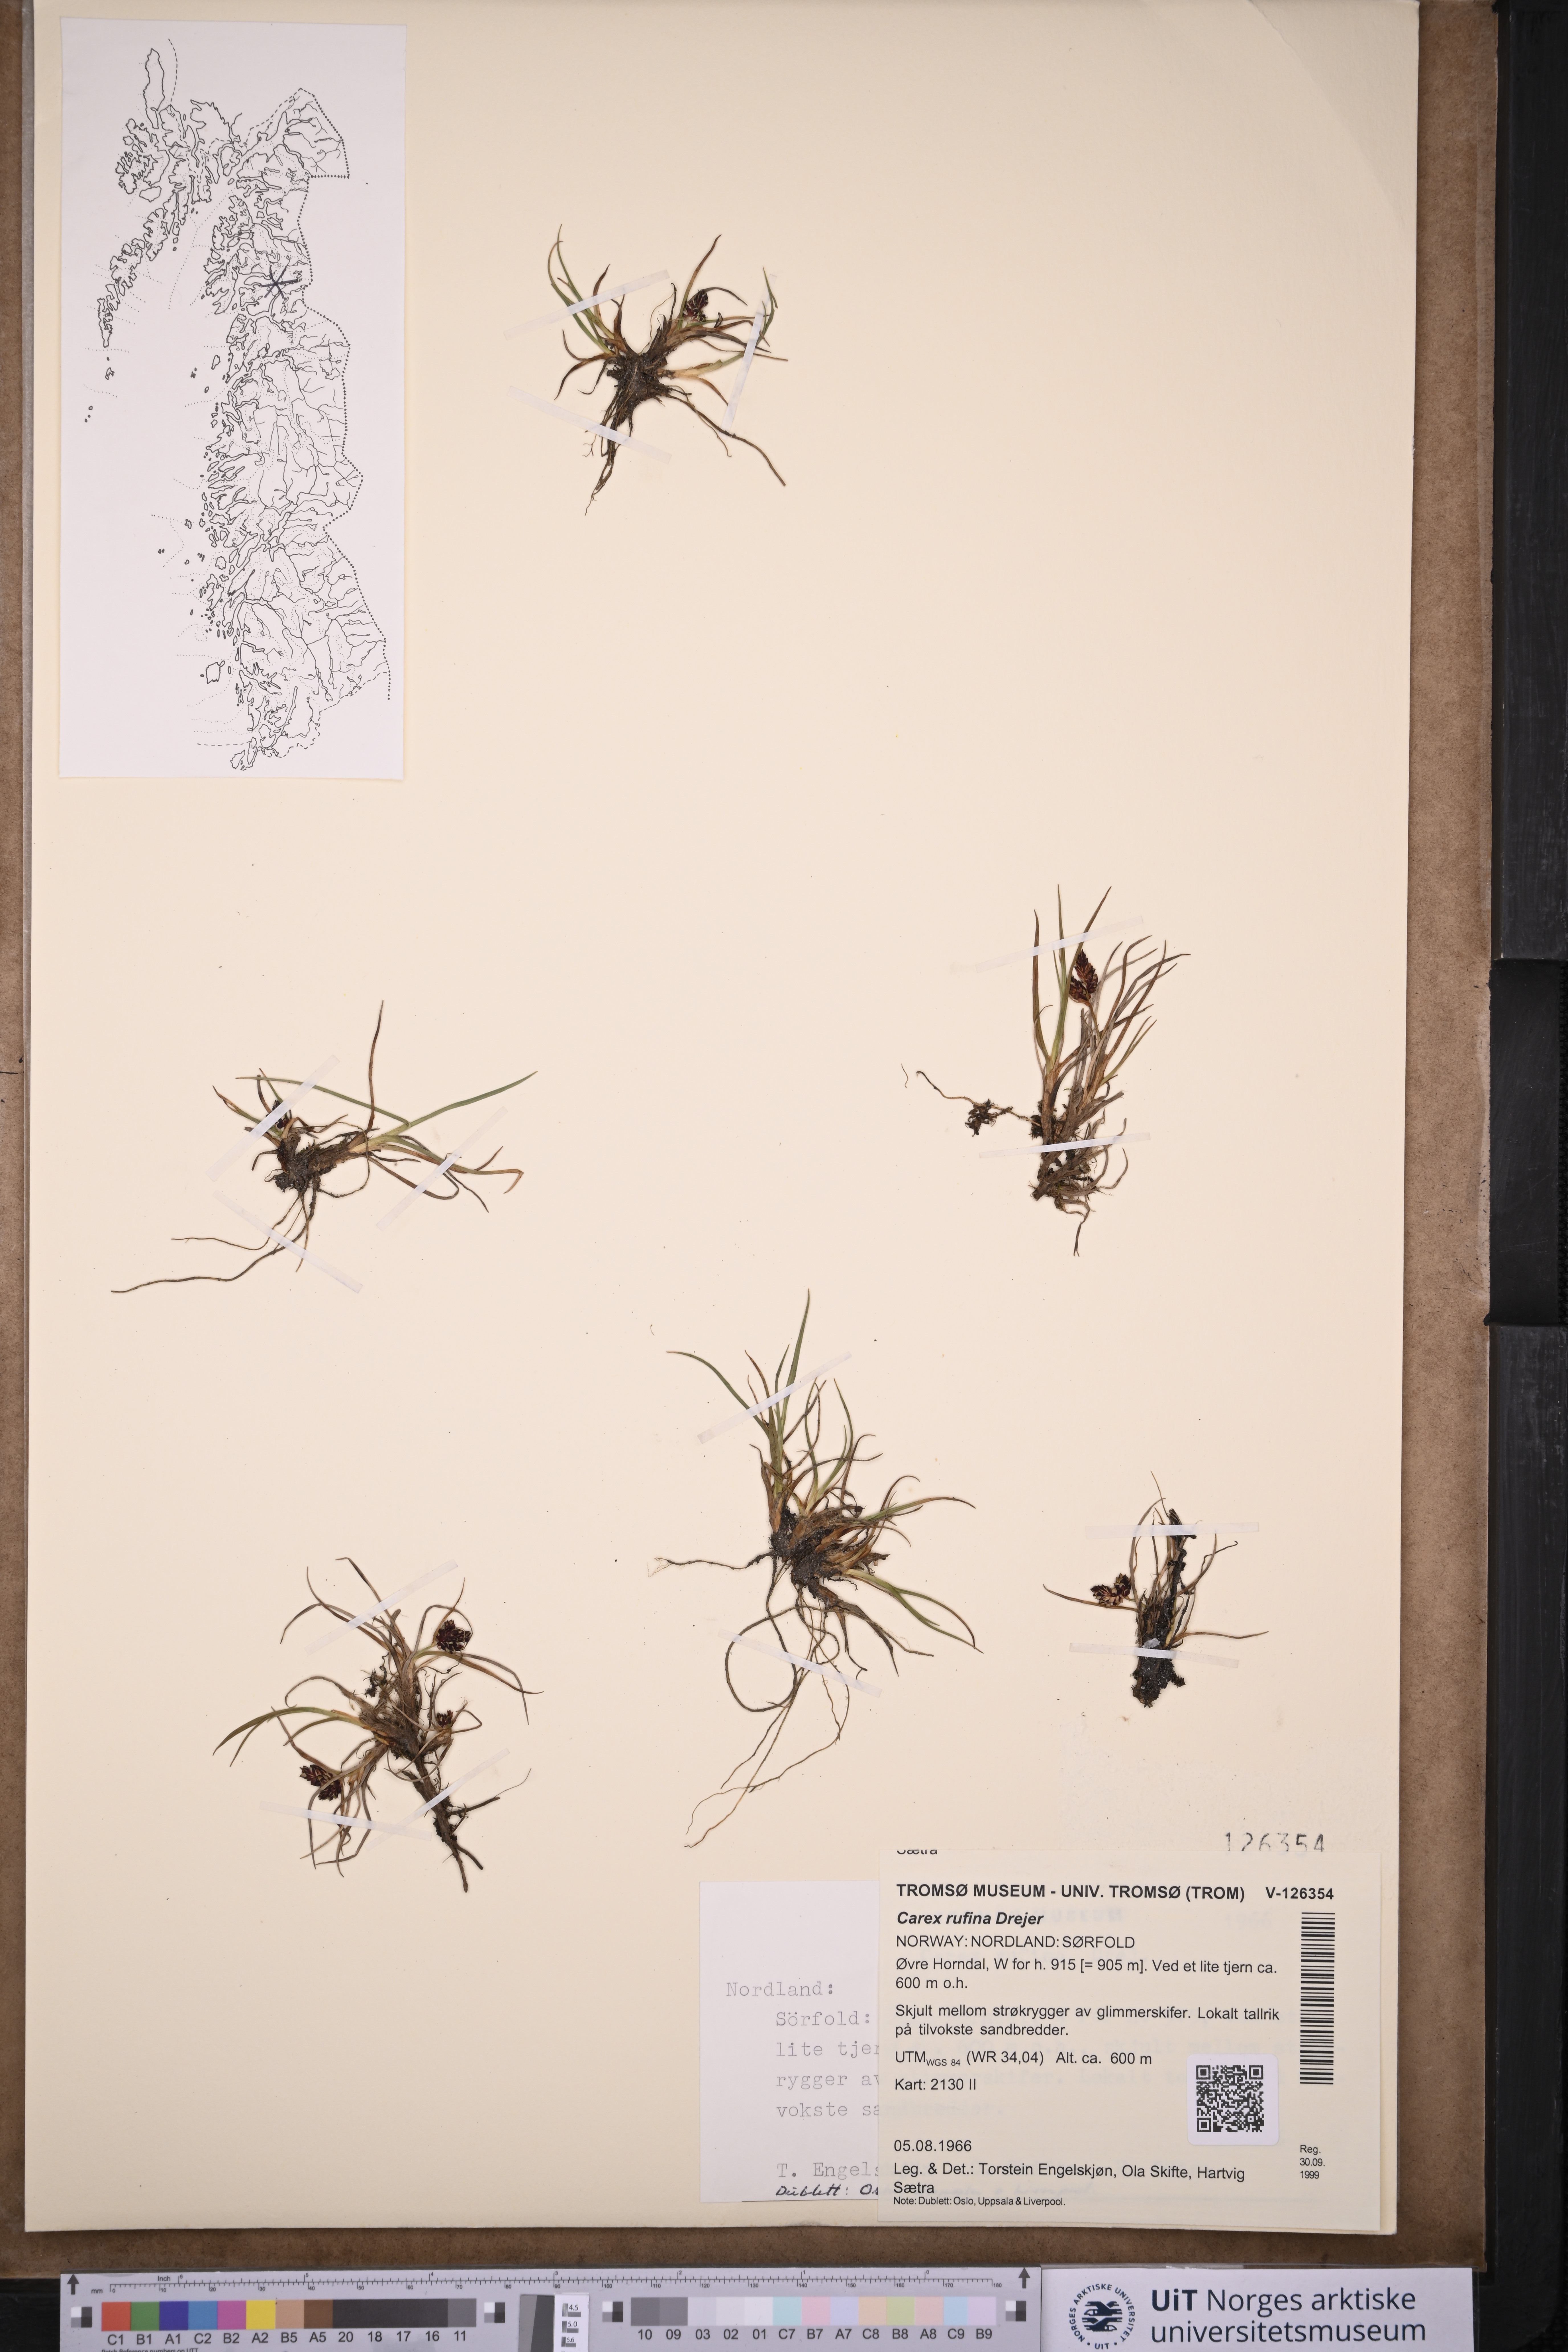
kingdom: Plantae
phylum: Tracheophyta
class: Liliopsida
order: Poales
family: Cyperaceae
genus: Carex
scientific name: Carex rufina
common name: Reddish sedge
